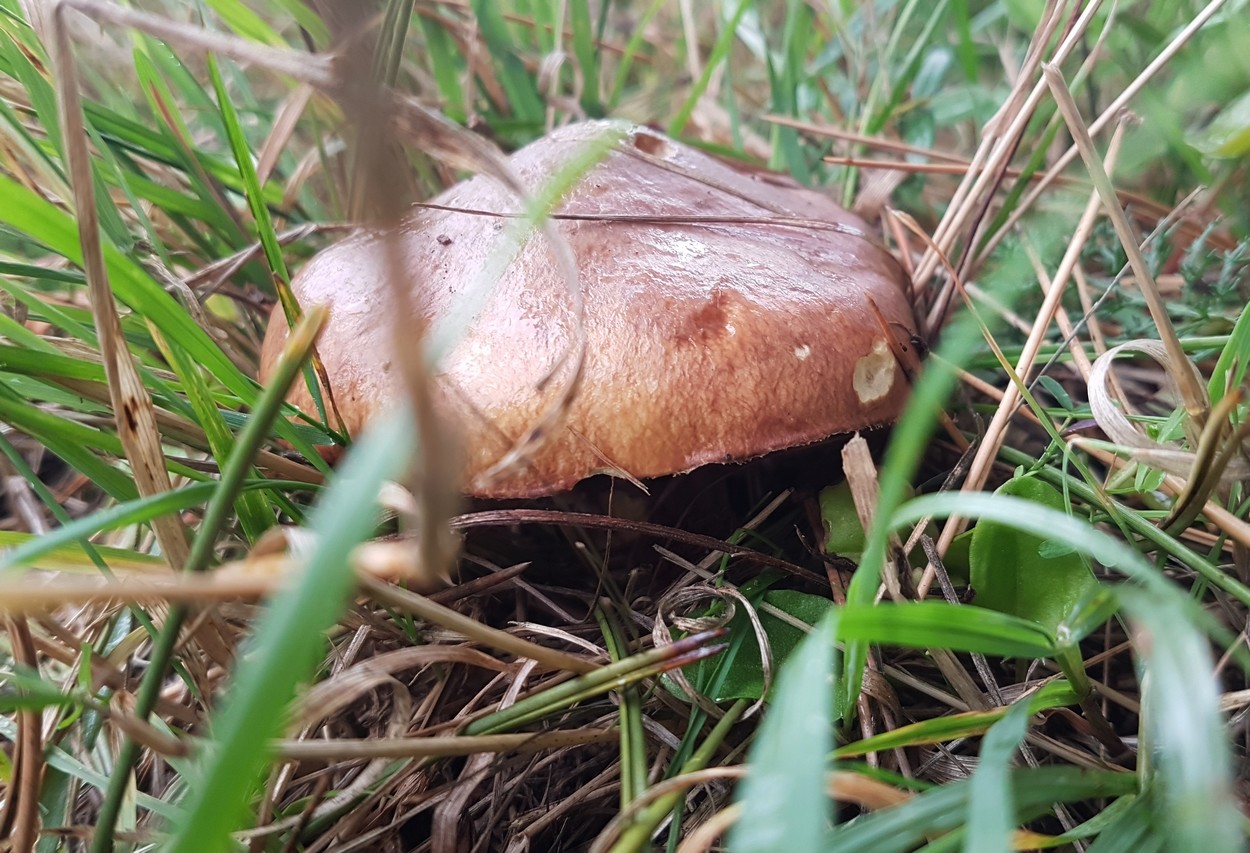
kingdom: Fungi
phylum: Basidiomycota
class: Agaricomycetes
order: Boletales
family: Suillaceae
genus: Suillus
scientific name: Suillus luteus
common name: brungul slimrørhat
